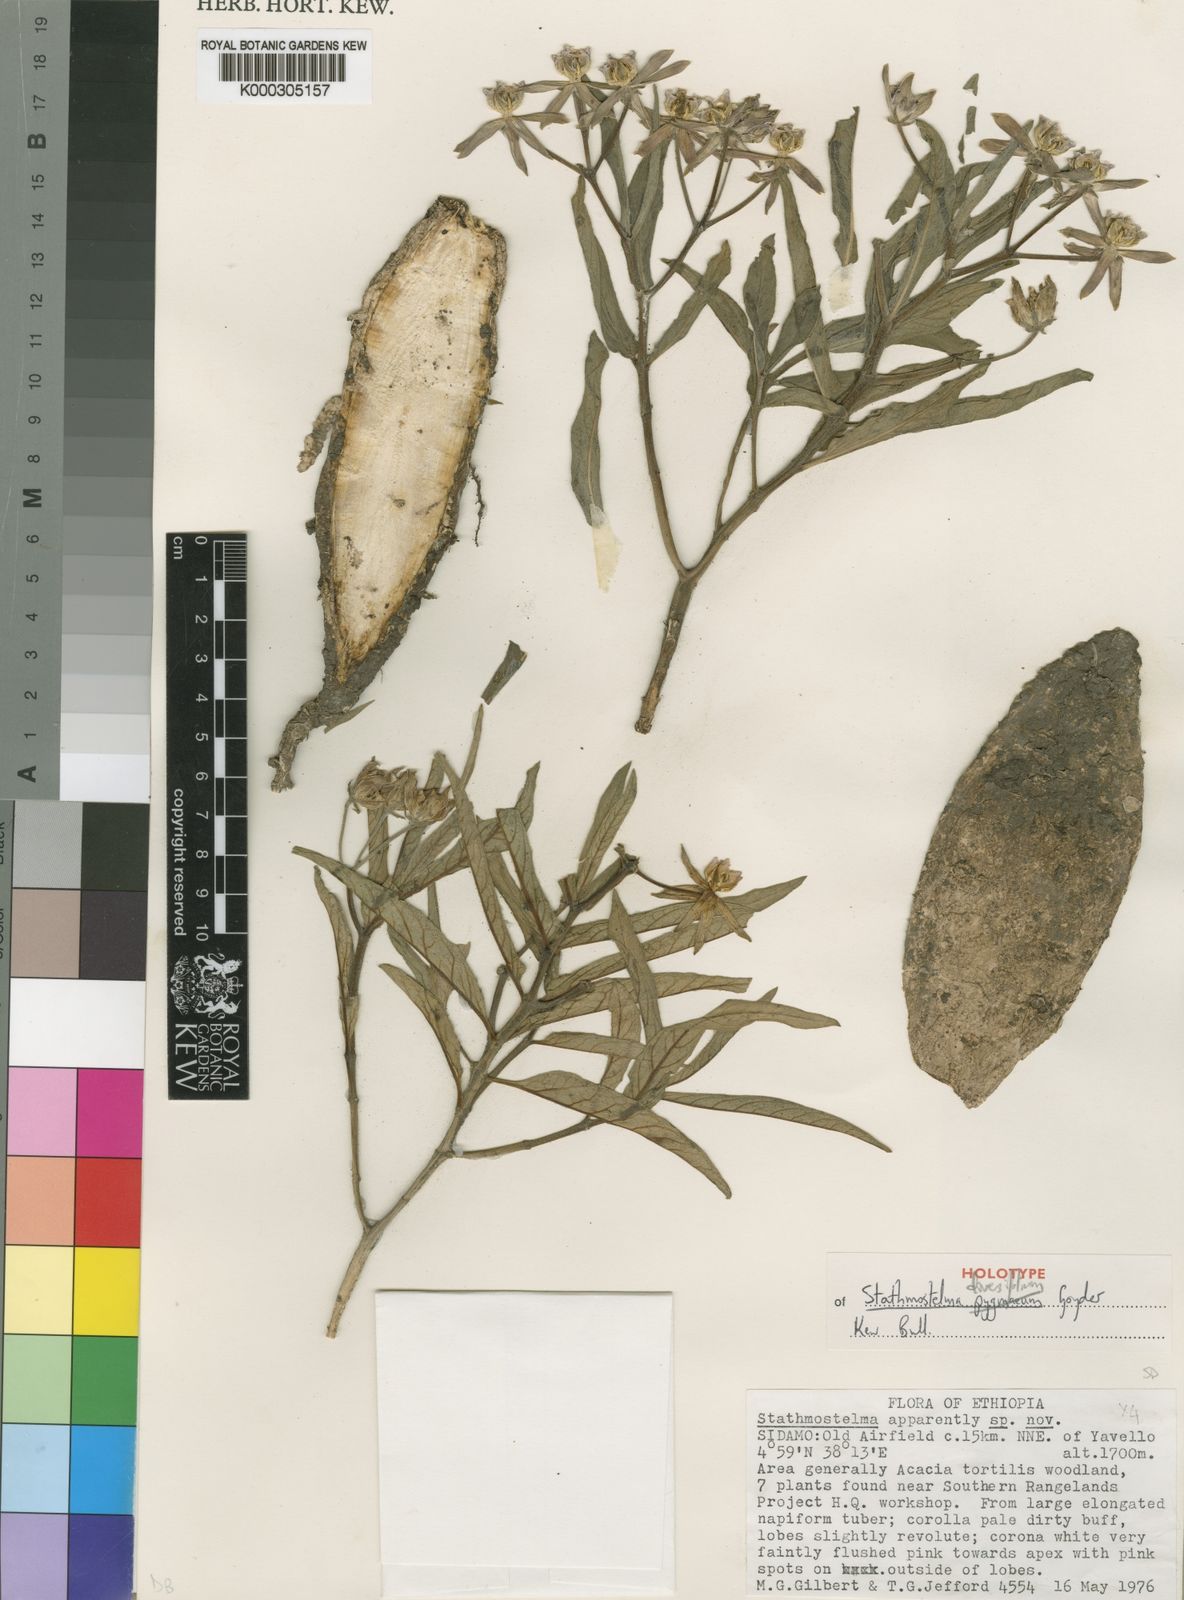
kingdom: Plantae
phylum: Tracheophyta
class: Magnoliopsida
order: Gentianales
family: Apocynaceae
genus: Stathmostelma
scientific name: Stathmostelma diversifolium
